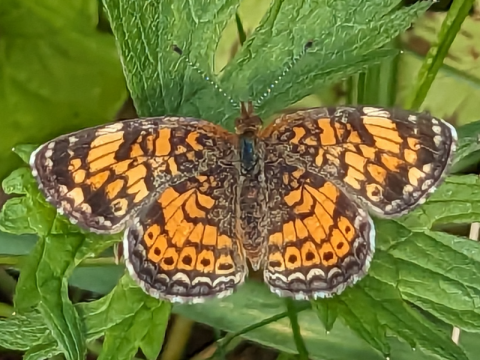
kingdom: Animalia
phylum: Arthropoda
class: Insecta
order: Lepidoptera
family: Nymphalidae
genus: Phyciodes
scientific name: Phyciodes tharos
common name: Pearl Crescent
